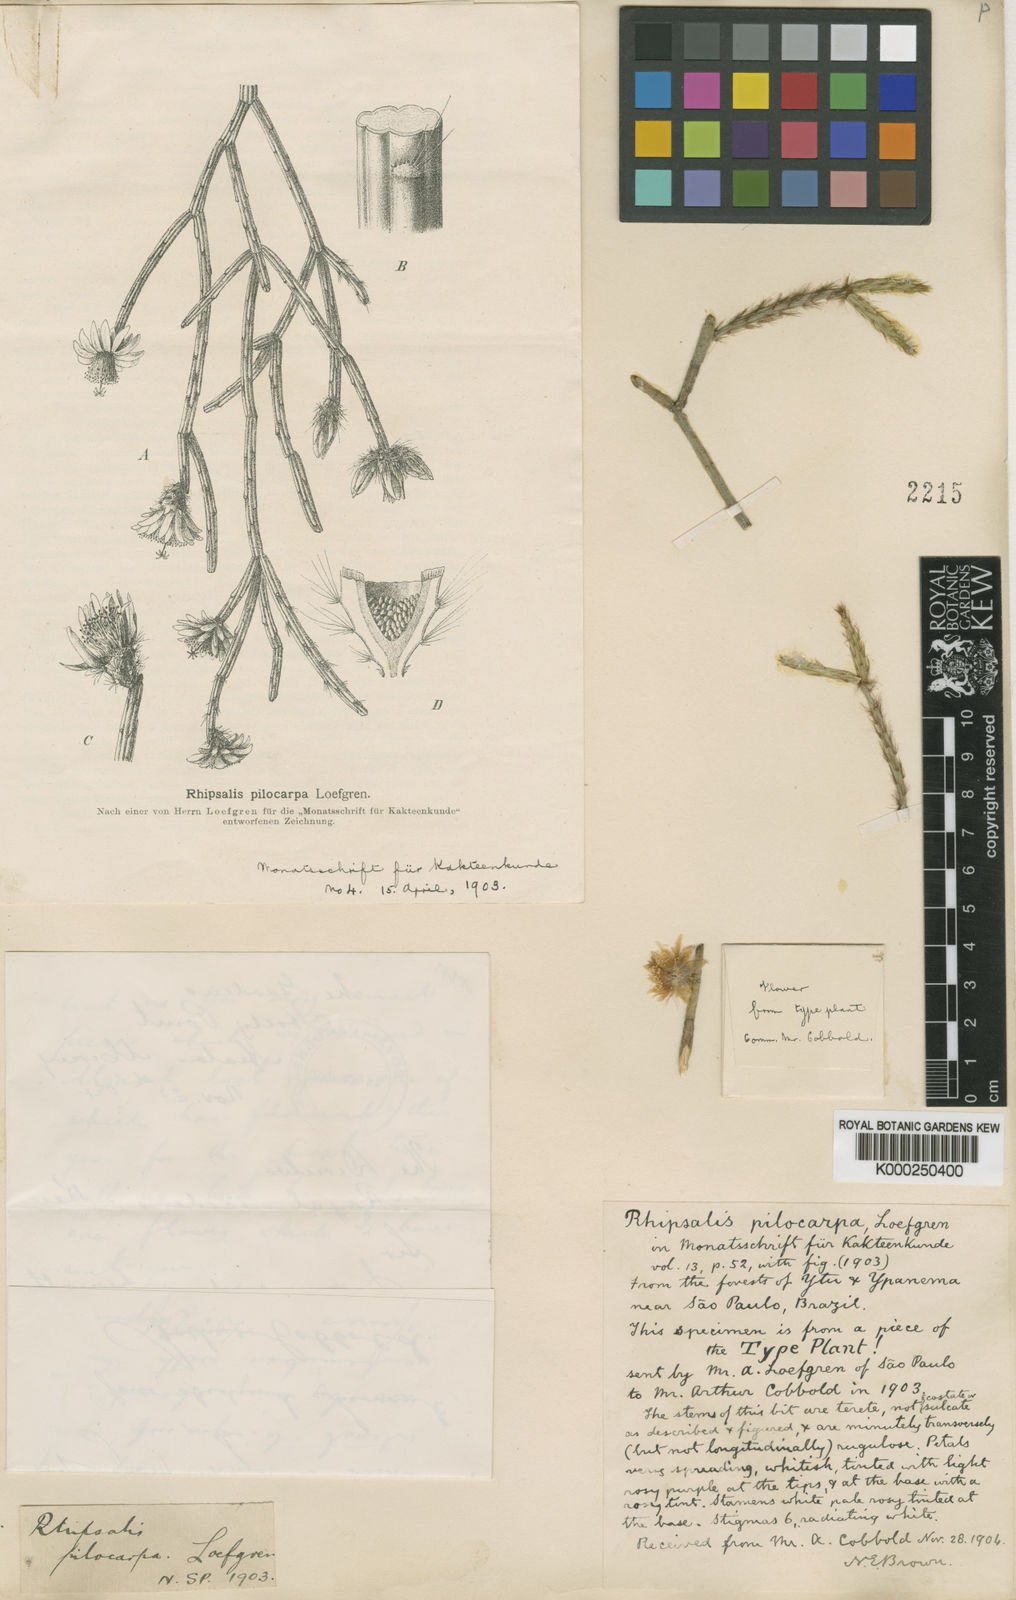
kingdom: Plantae
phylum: Tracheophyta
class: Magnoliopsida
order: Caryophyllales
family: Cactaceae
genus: Rhipsalis
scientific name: Rhipsalis pilocarpa
